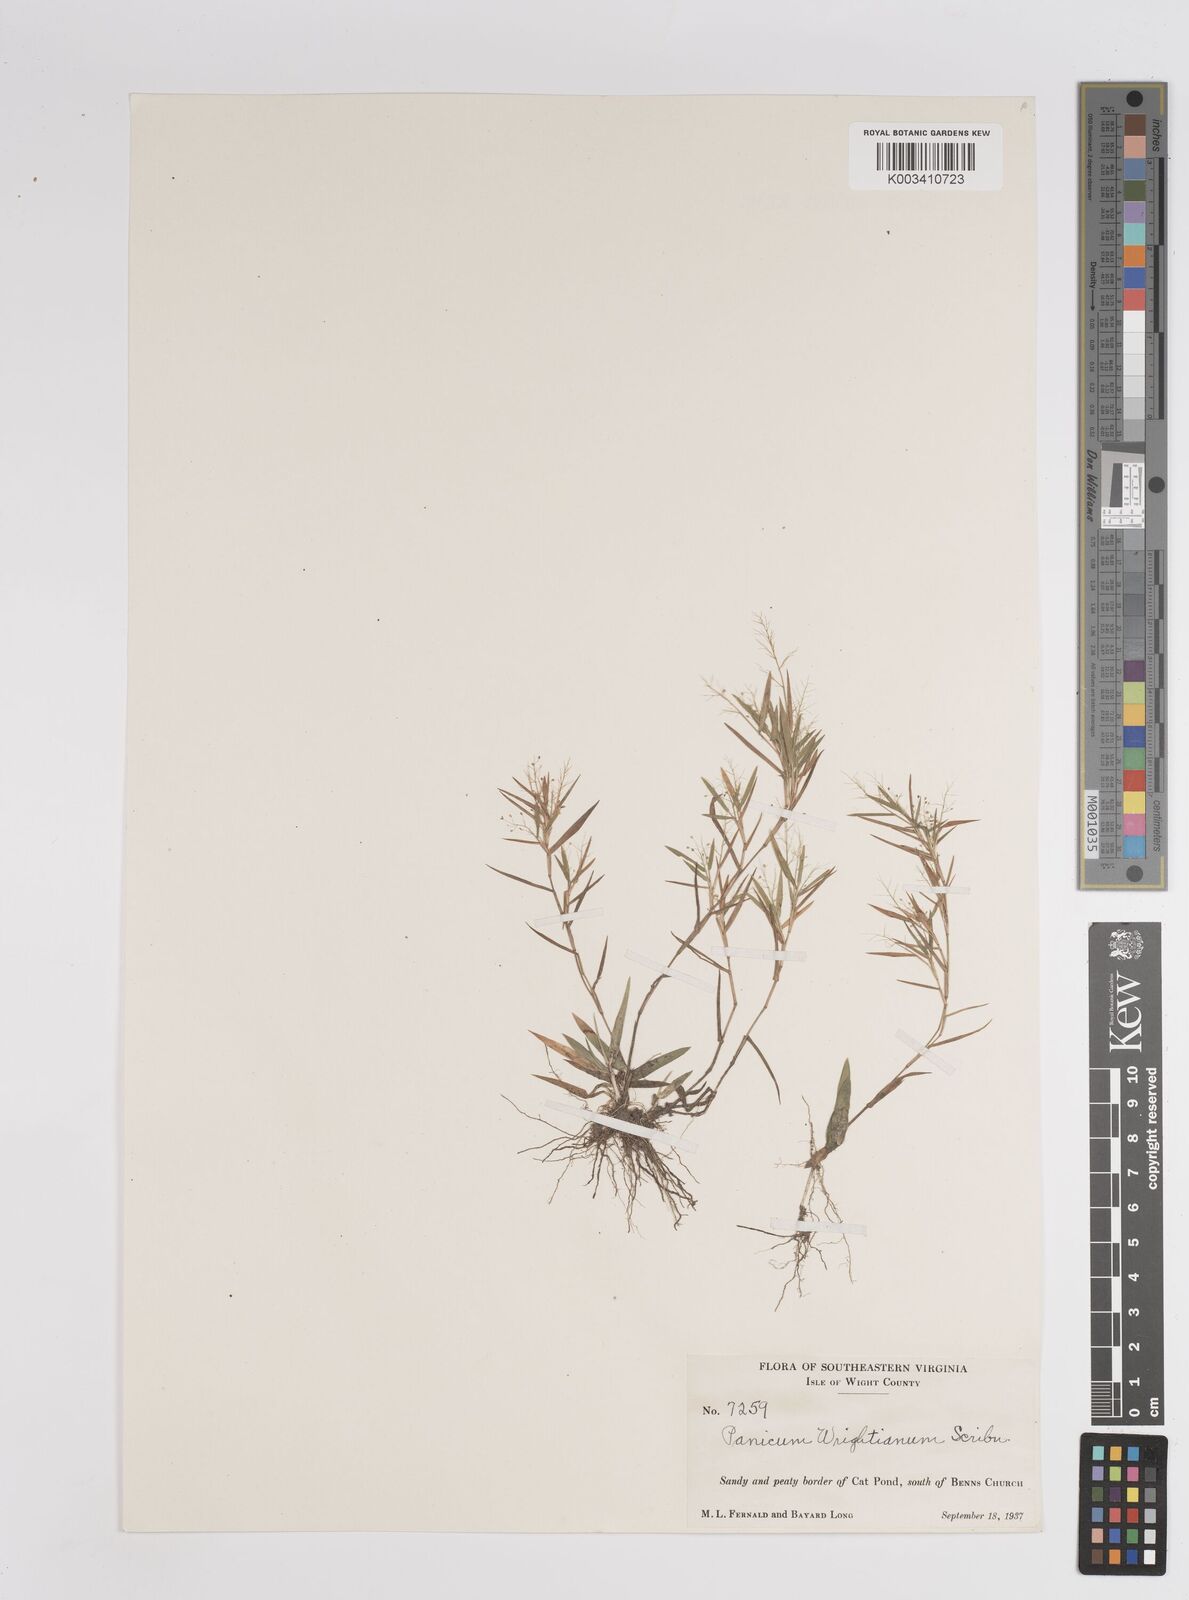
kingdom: Plantae
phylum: Tracheophyta
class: Liliopsida
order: Poales
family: Poaceae
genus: Dichanthelium
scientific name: Dichanthelium wrightianum
